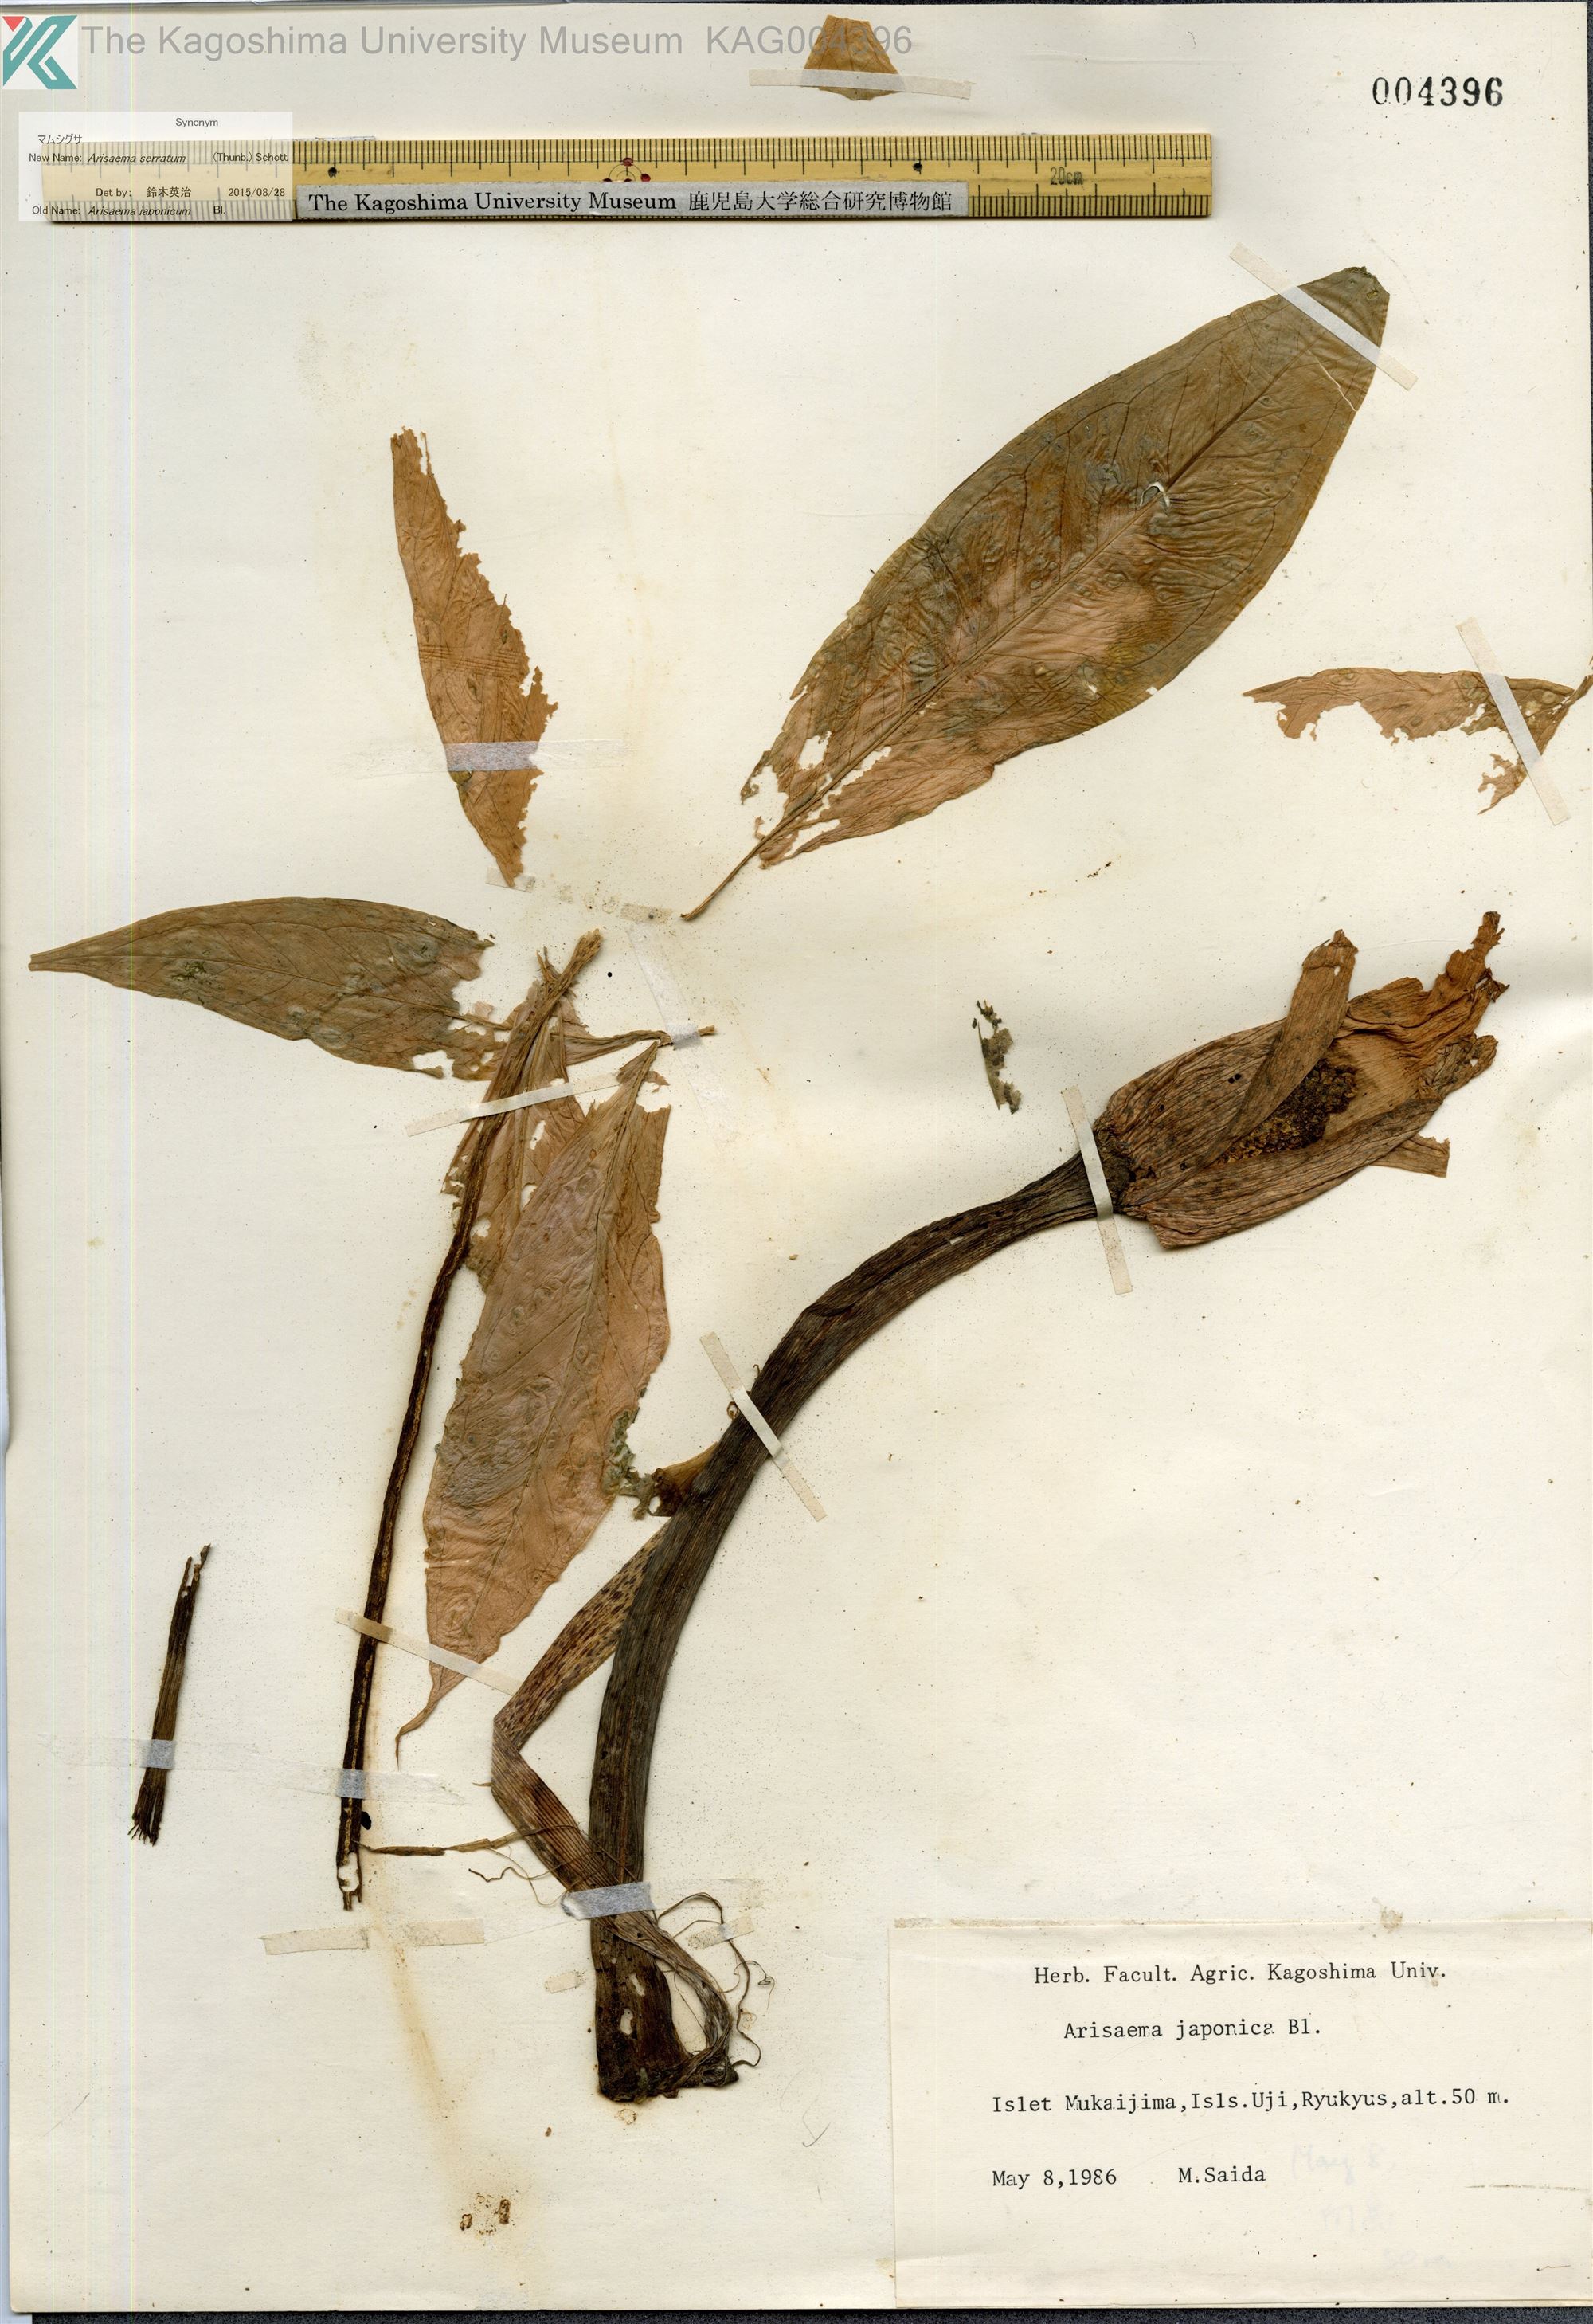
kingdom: Plantae
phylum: Tracheophyta
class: Liliopsida
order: Alismatales
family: Araceae
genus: Arisaema
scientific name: Arisaema serratum
